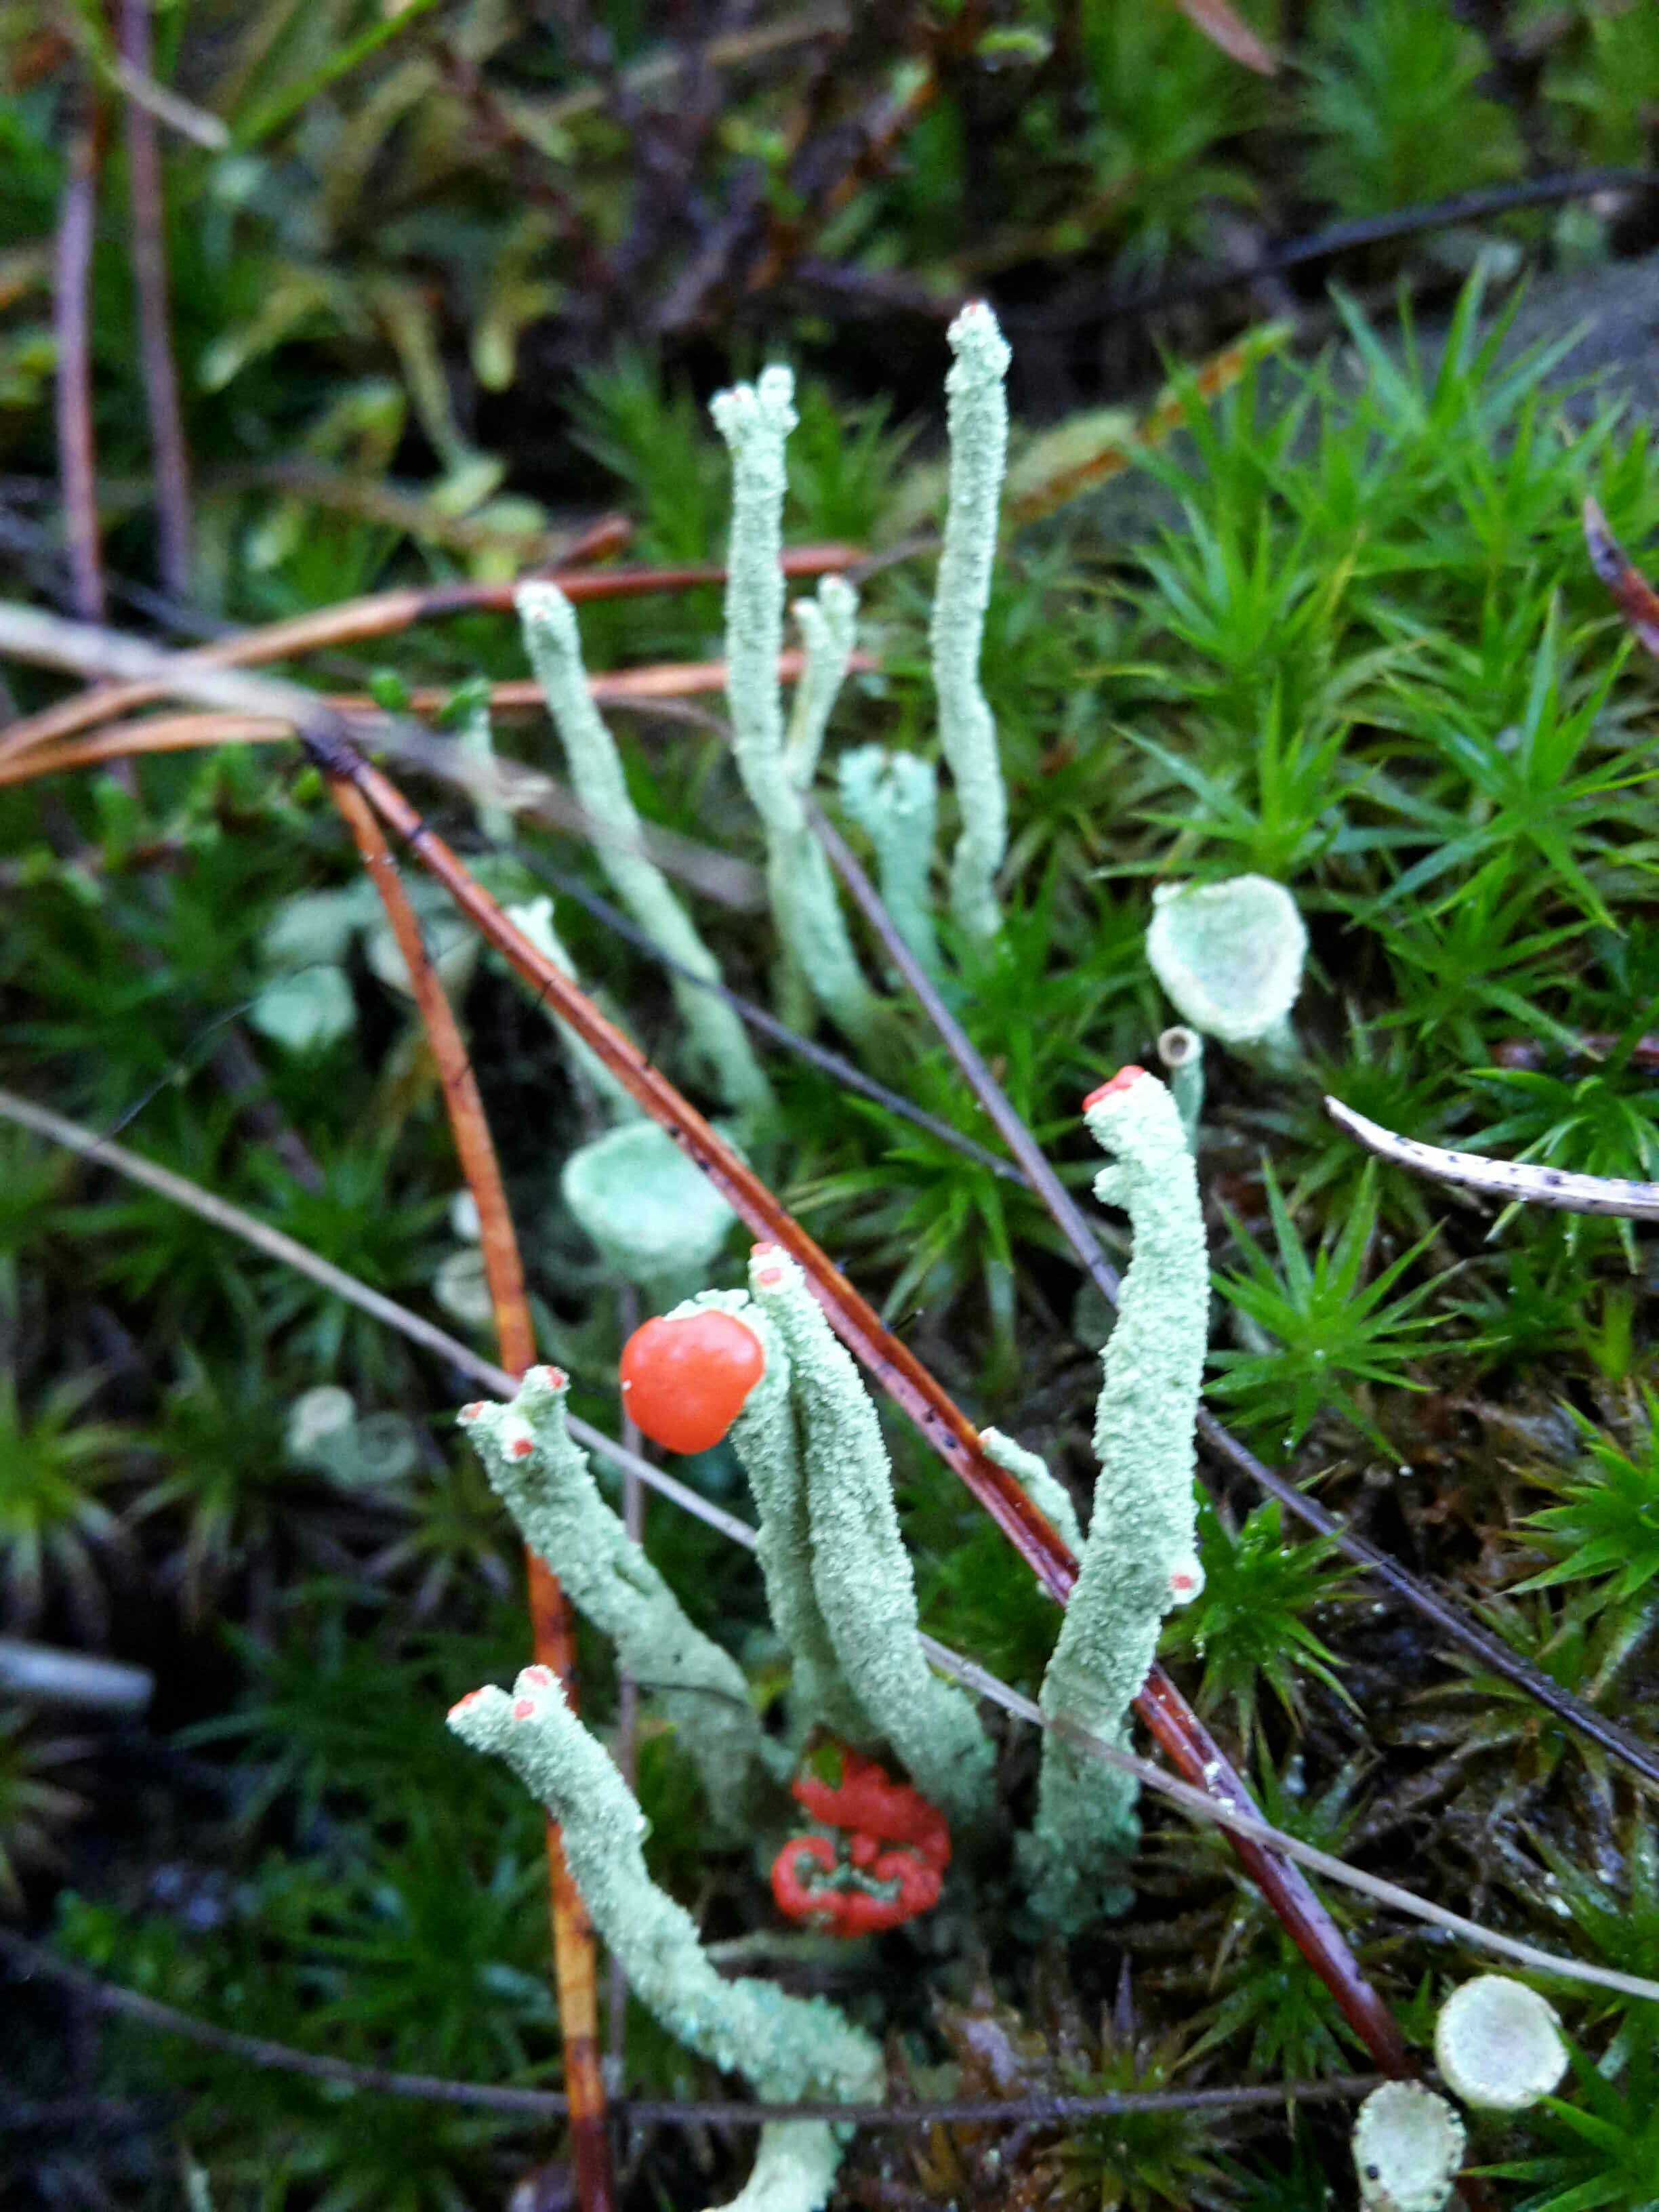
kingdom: Fungi
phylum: Ascomycota
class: Lecanoromycetes
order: Lecanorales
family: Cladoniaceae
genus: Cladonia
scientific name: Cladonia floerkeana
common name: lakrød bægerlav
